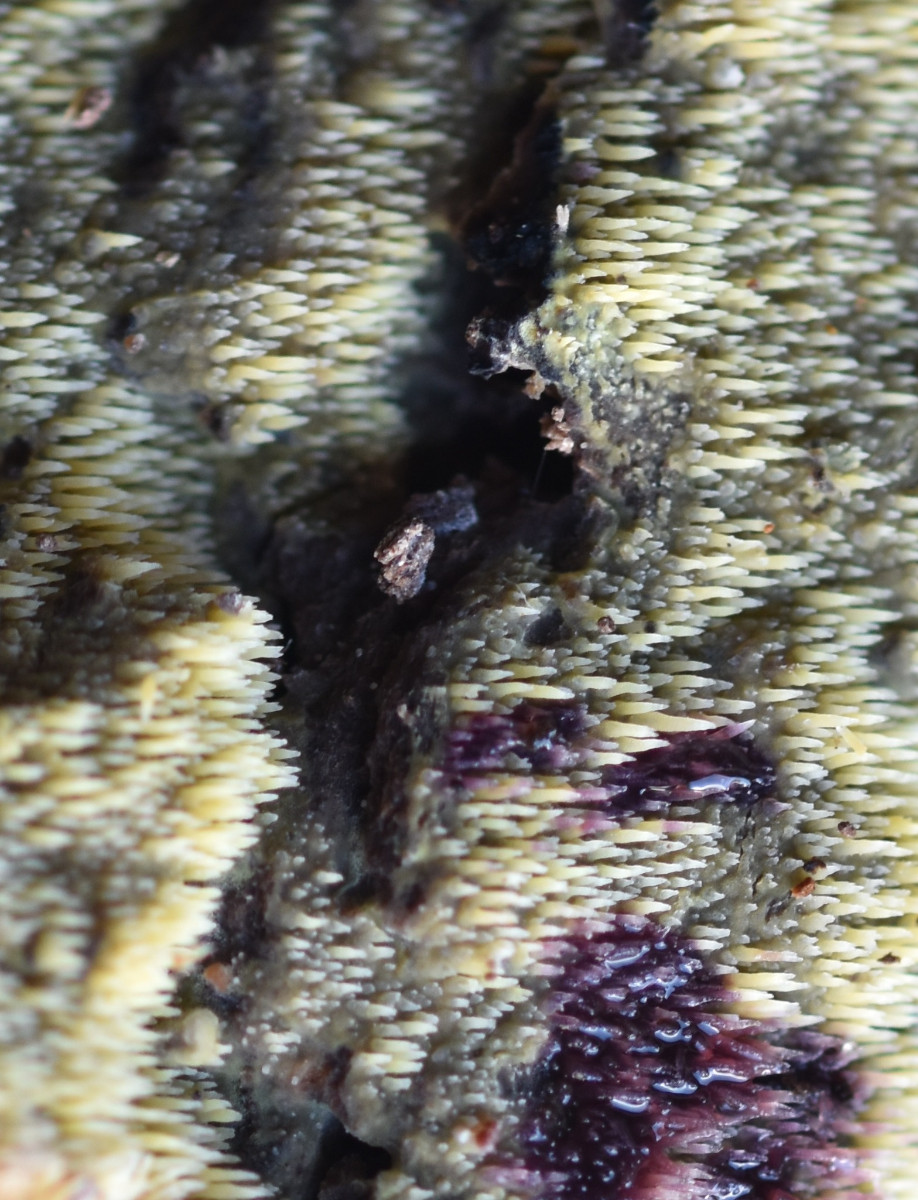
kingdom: Fungi
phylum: Basidiomycota
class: Agaricomycetes
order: Polyporales
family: Meruliaceae
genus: Mycoacia
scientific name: Mycoacia uda
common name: citrongul vokspig
